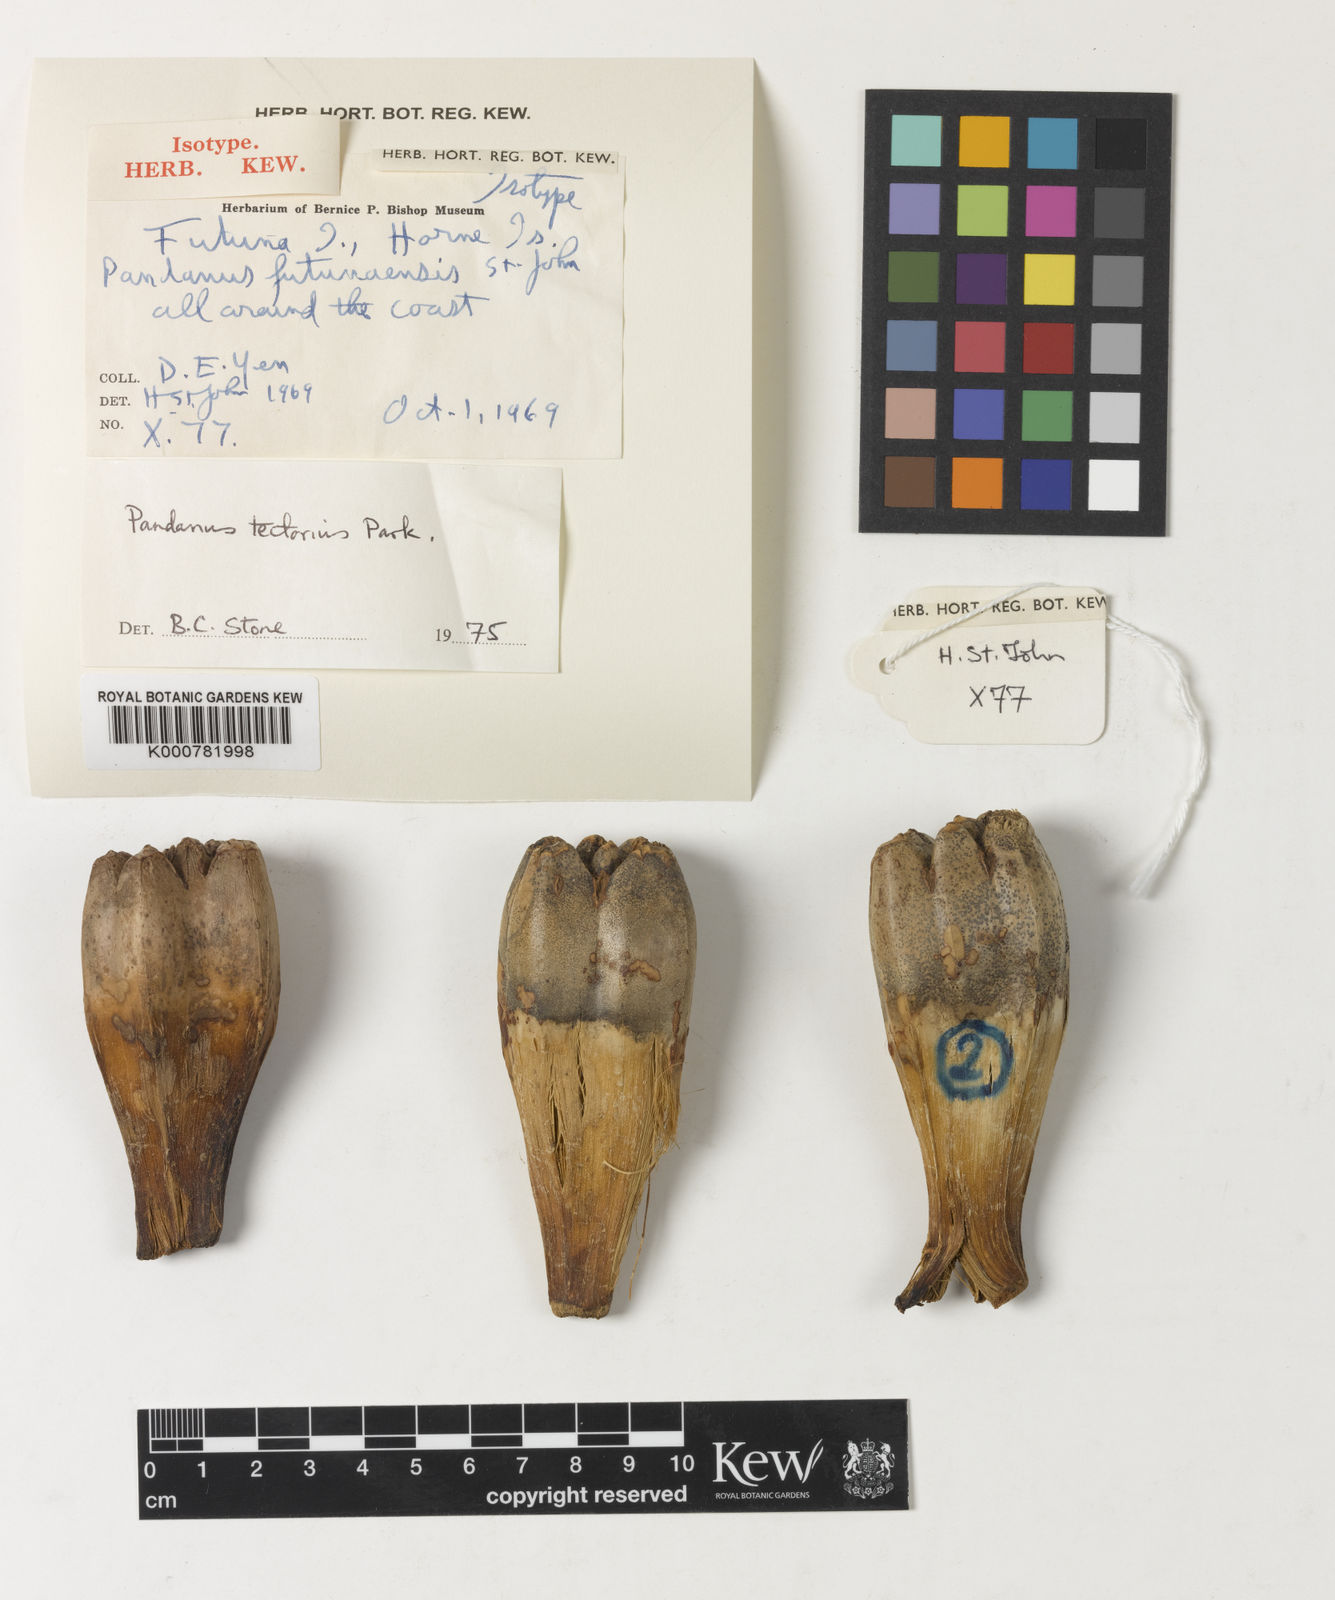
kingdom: Plantae
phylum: Tracheophyta
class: Liliopsida
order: Pandanales
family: Pandanaceae
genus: Pandanus
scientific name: Pandanus
